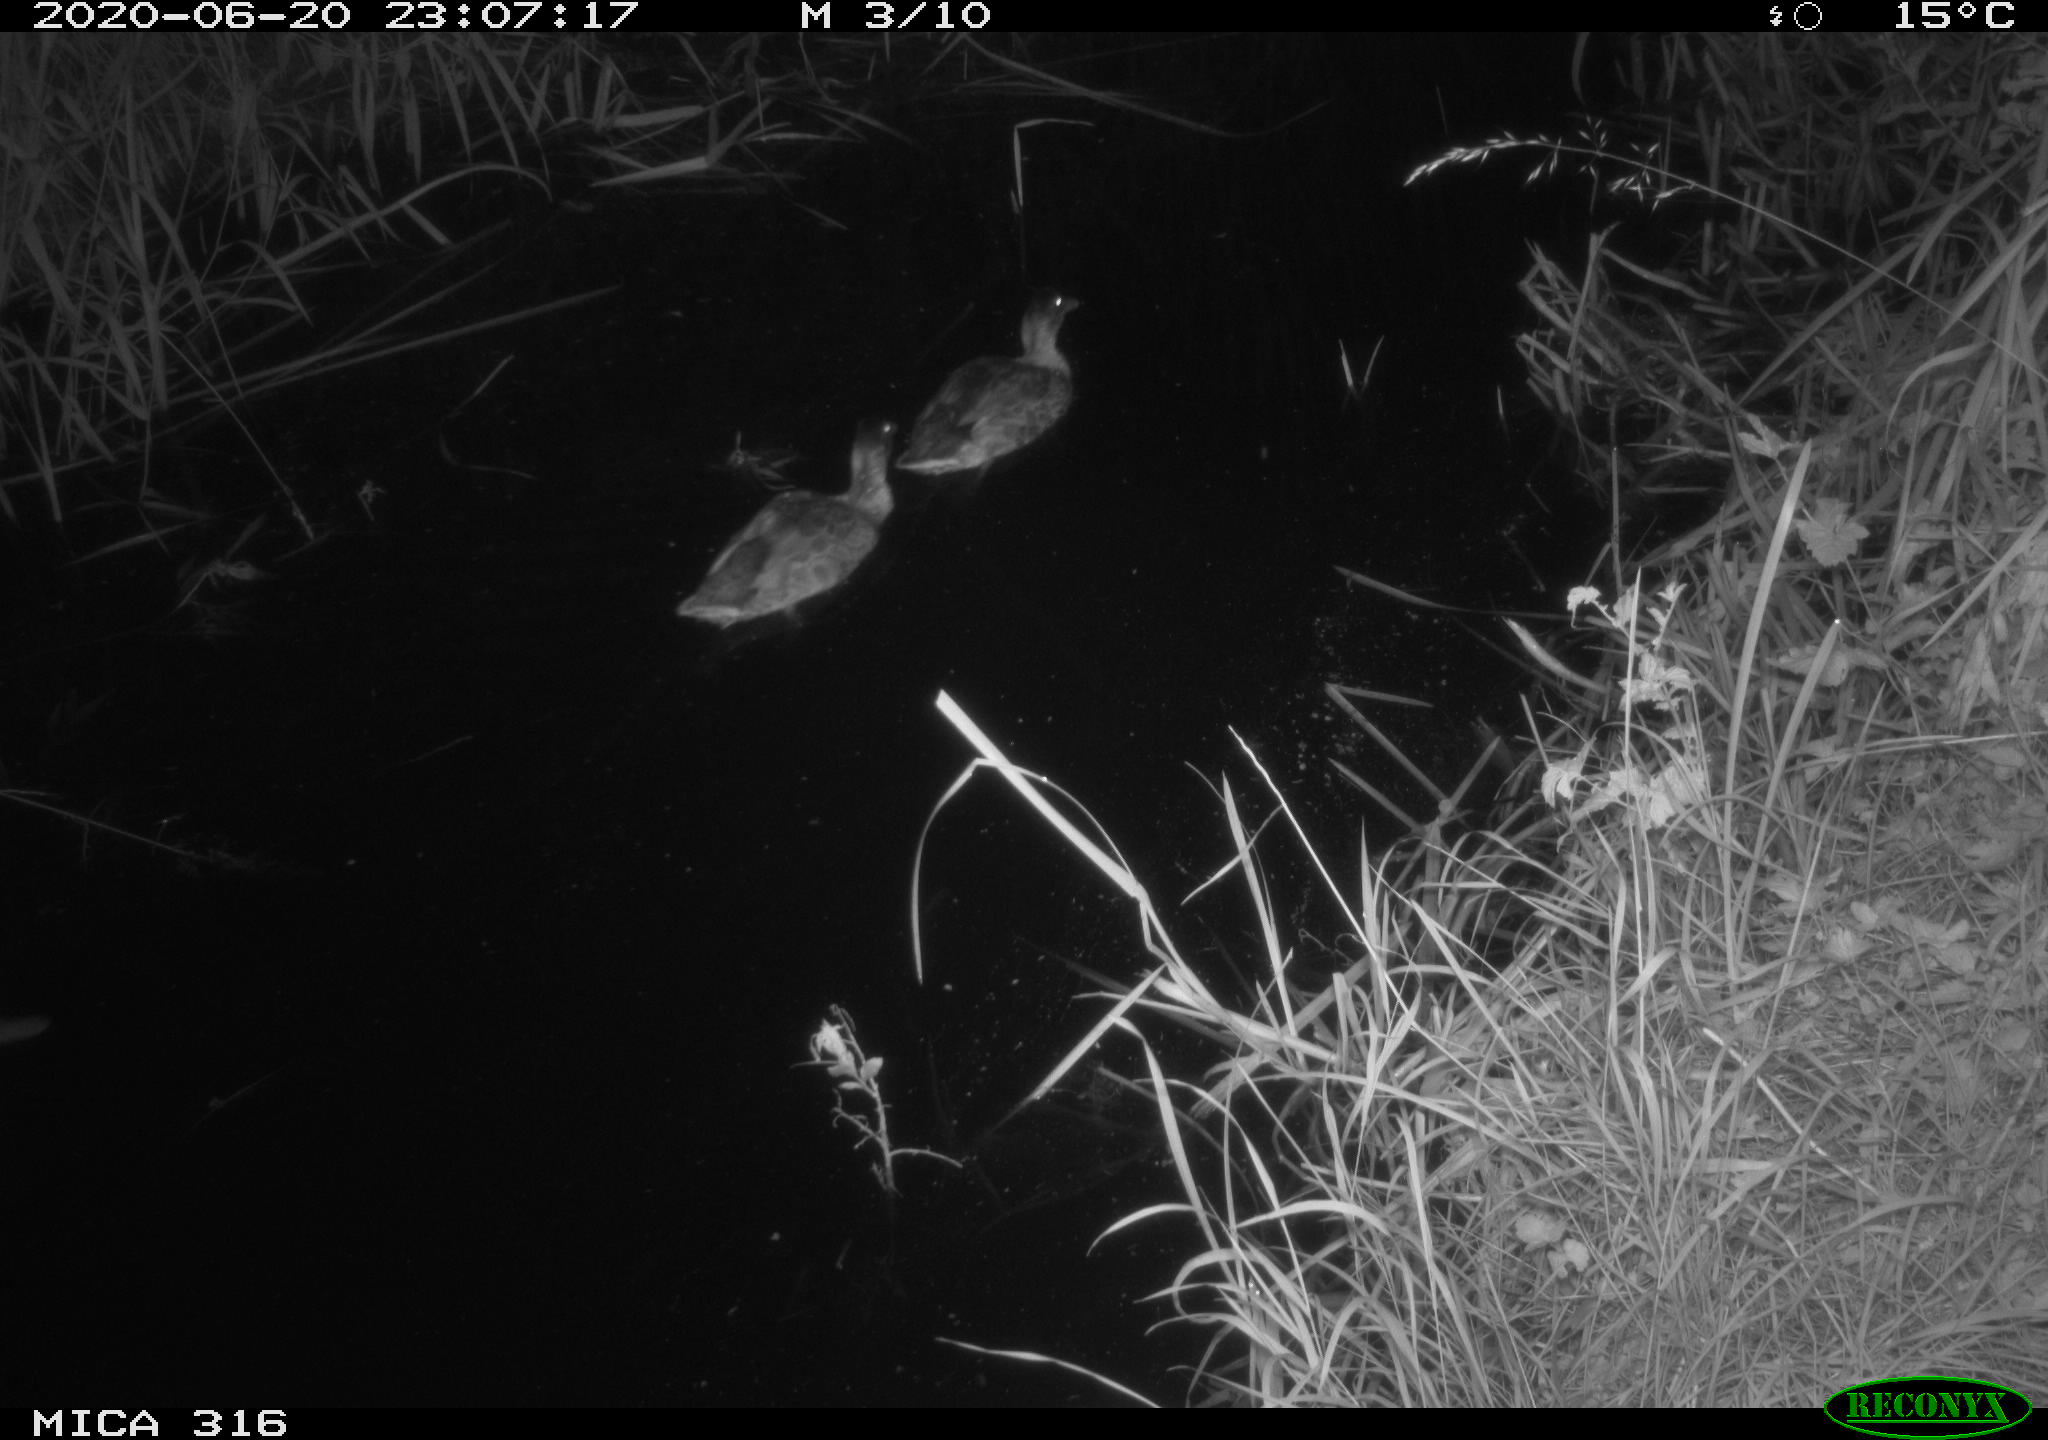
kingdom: Animalia
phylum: Chordata
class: Aves
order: Anseriformes
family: Anatidae
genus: Anas
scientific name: Anas platyrhynchos
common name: Mallard
